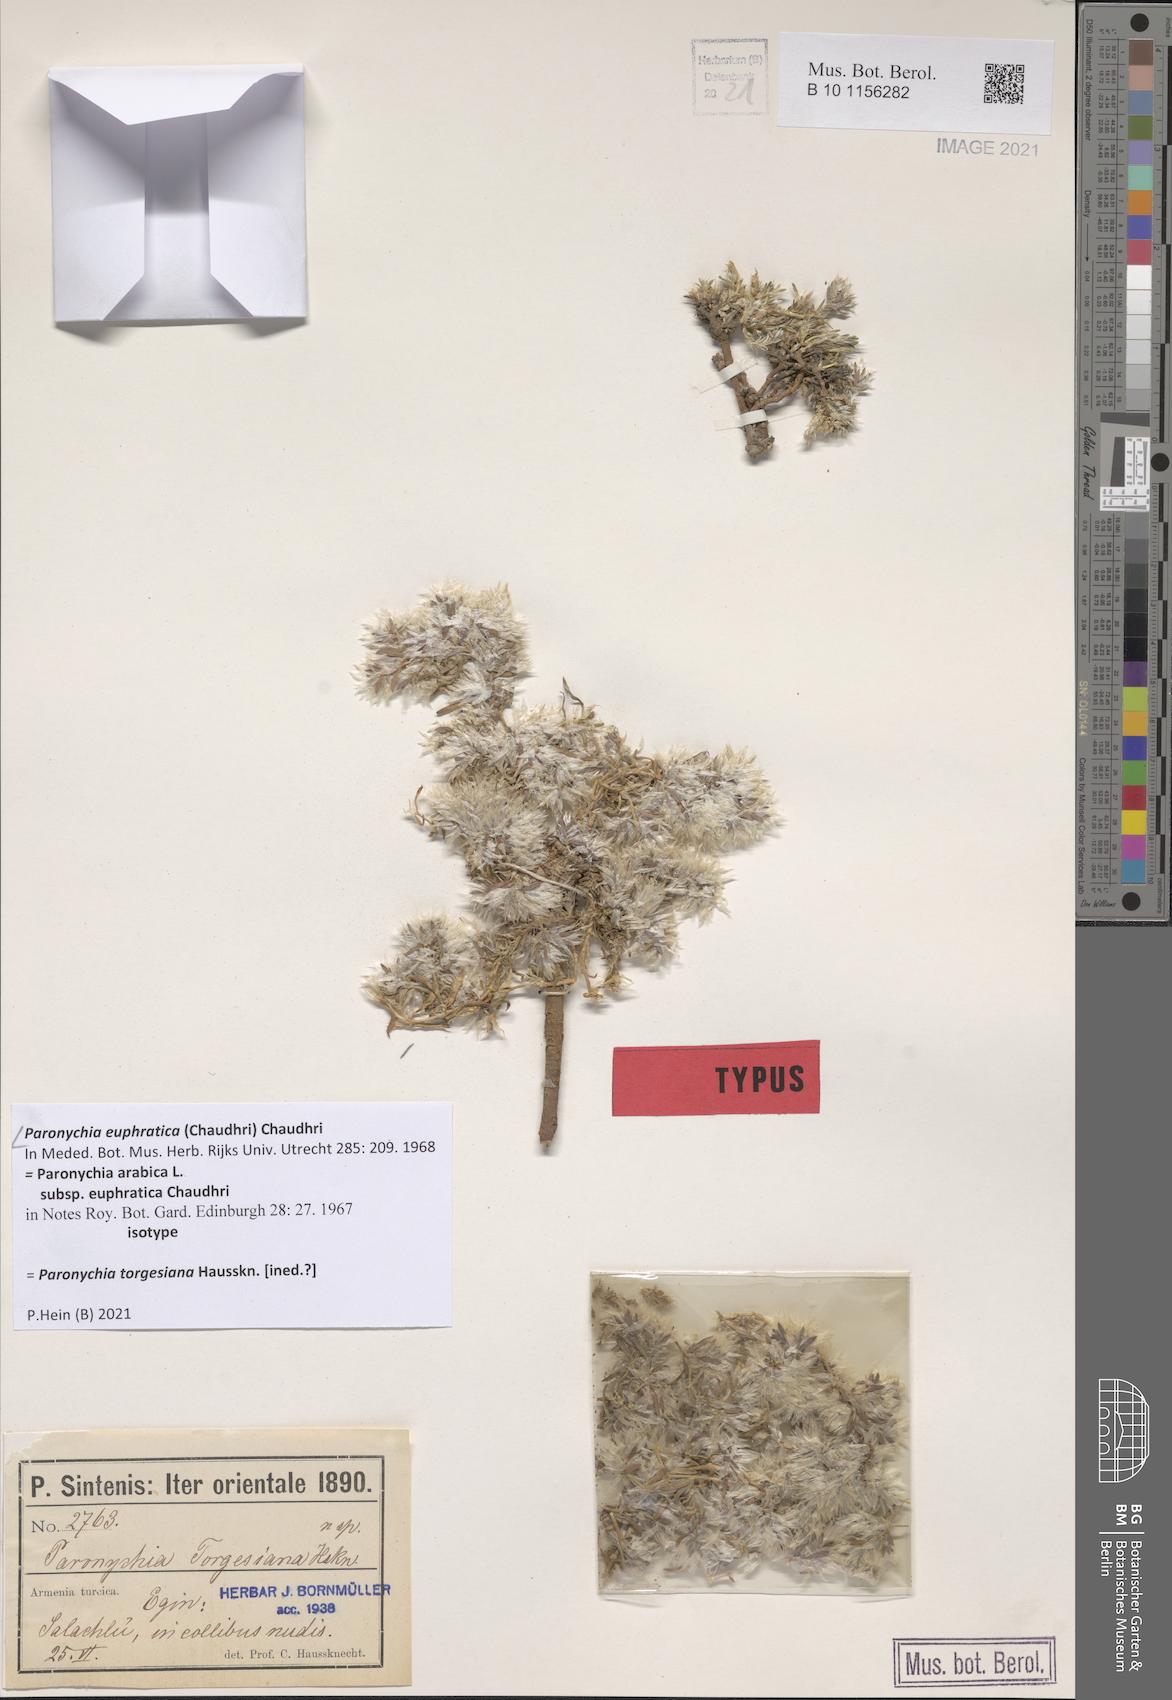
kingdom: Plantae
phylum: Tracheophyta
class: Magnoliopsida
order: Caryophyllales
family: Caryophyllaceae
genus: Paronychia
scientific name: Paronychia arabica
